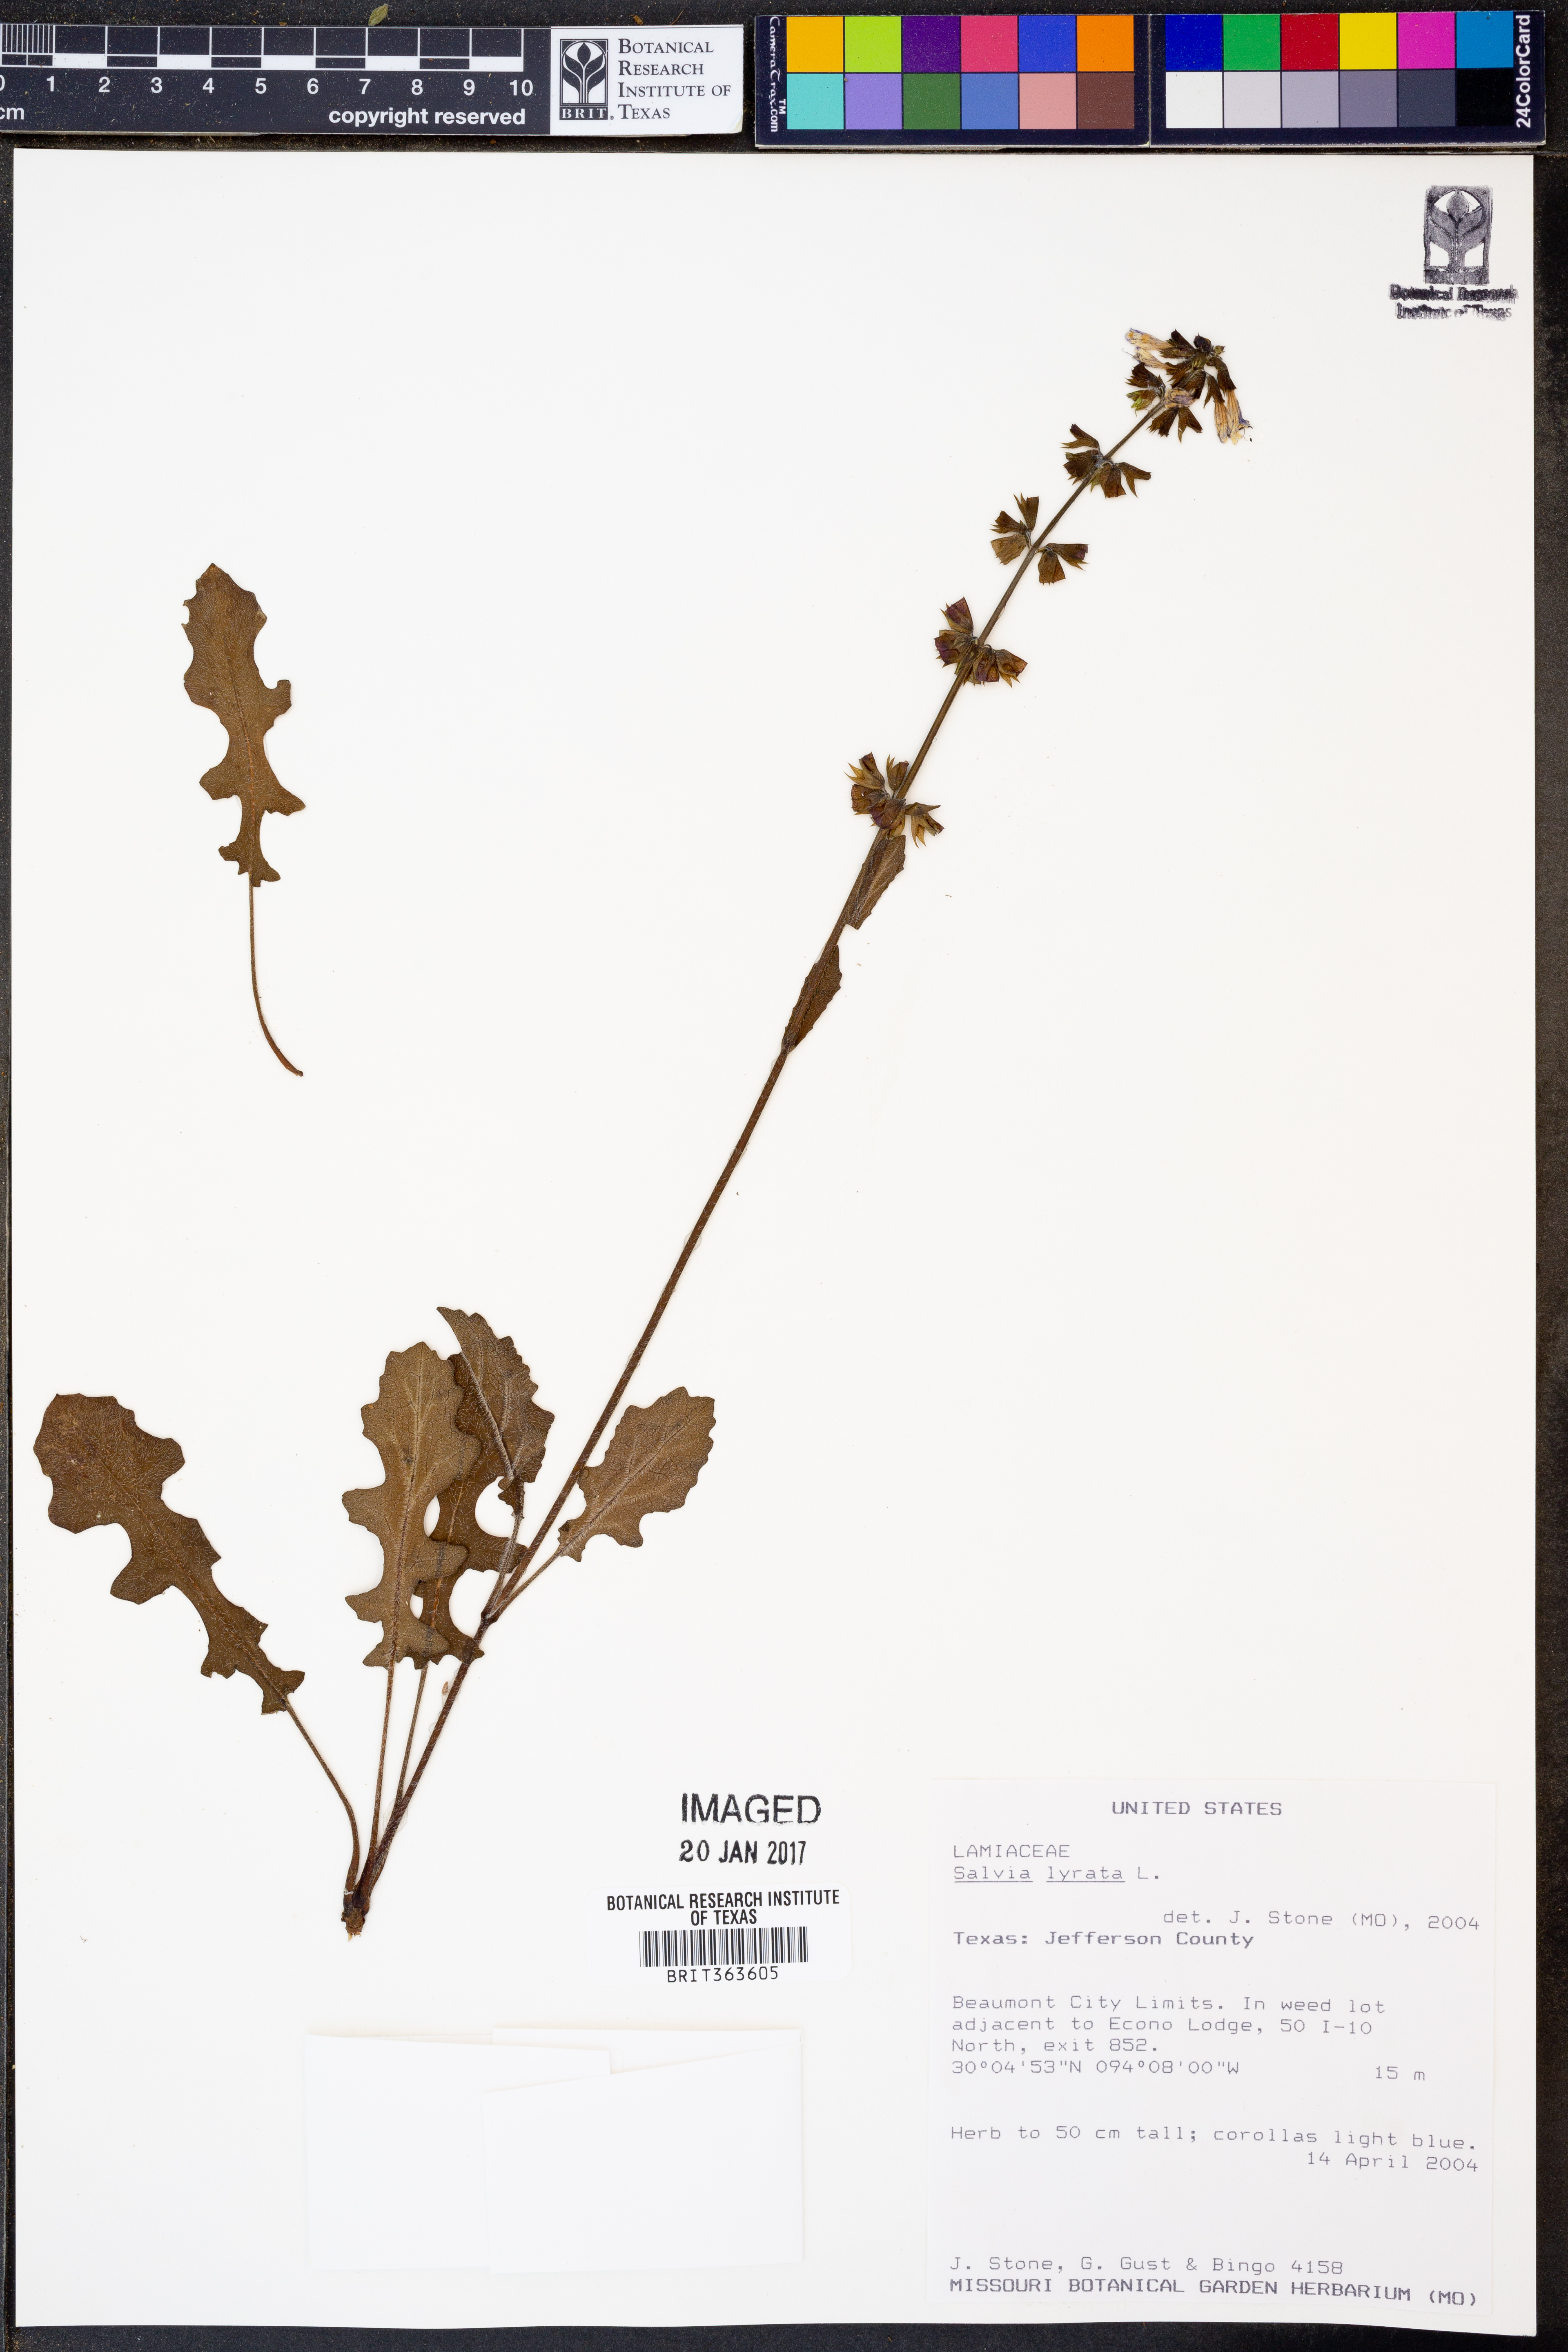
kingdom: Plantae
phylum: Tracheophyta
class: Magnoliopsida
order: Lamiales
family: Lamiaceae
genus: Salvia
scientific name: Salvia lyrata
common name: Cancerweed
